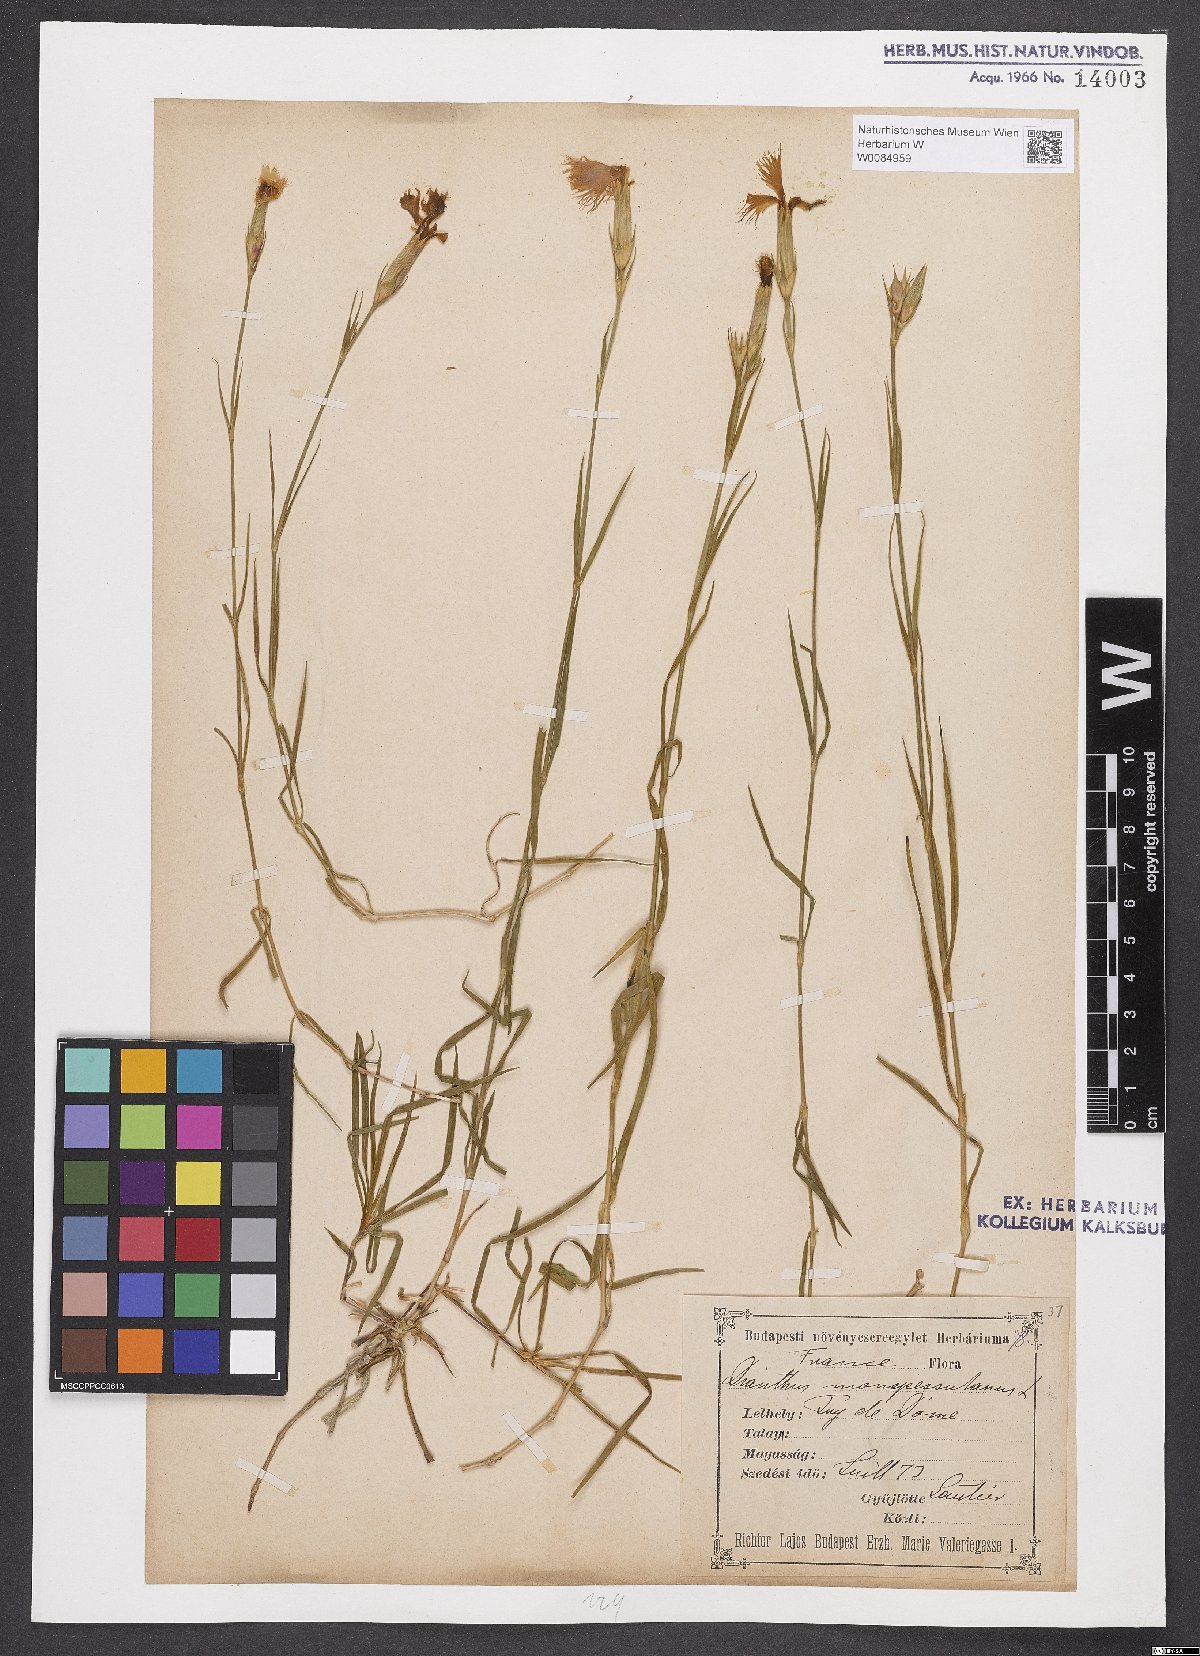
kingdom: Plantae
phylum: Tracheophyta
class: Magnoliopsida
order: Caryophyllales
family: Caryophyllaceae
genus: Dianthus
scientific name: Dianthus hyssopifolius
